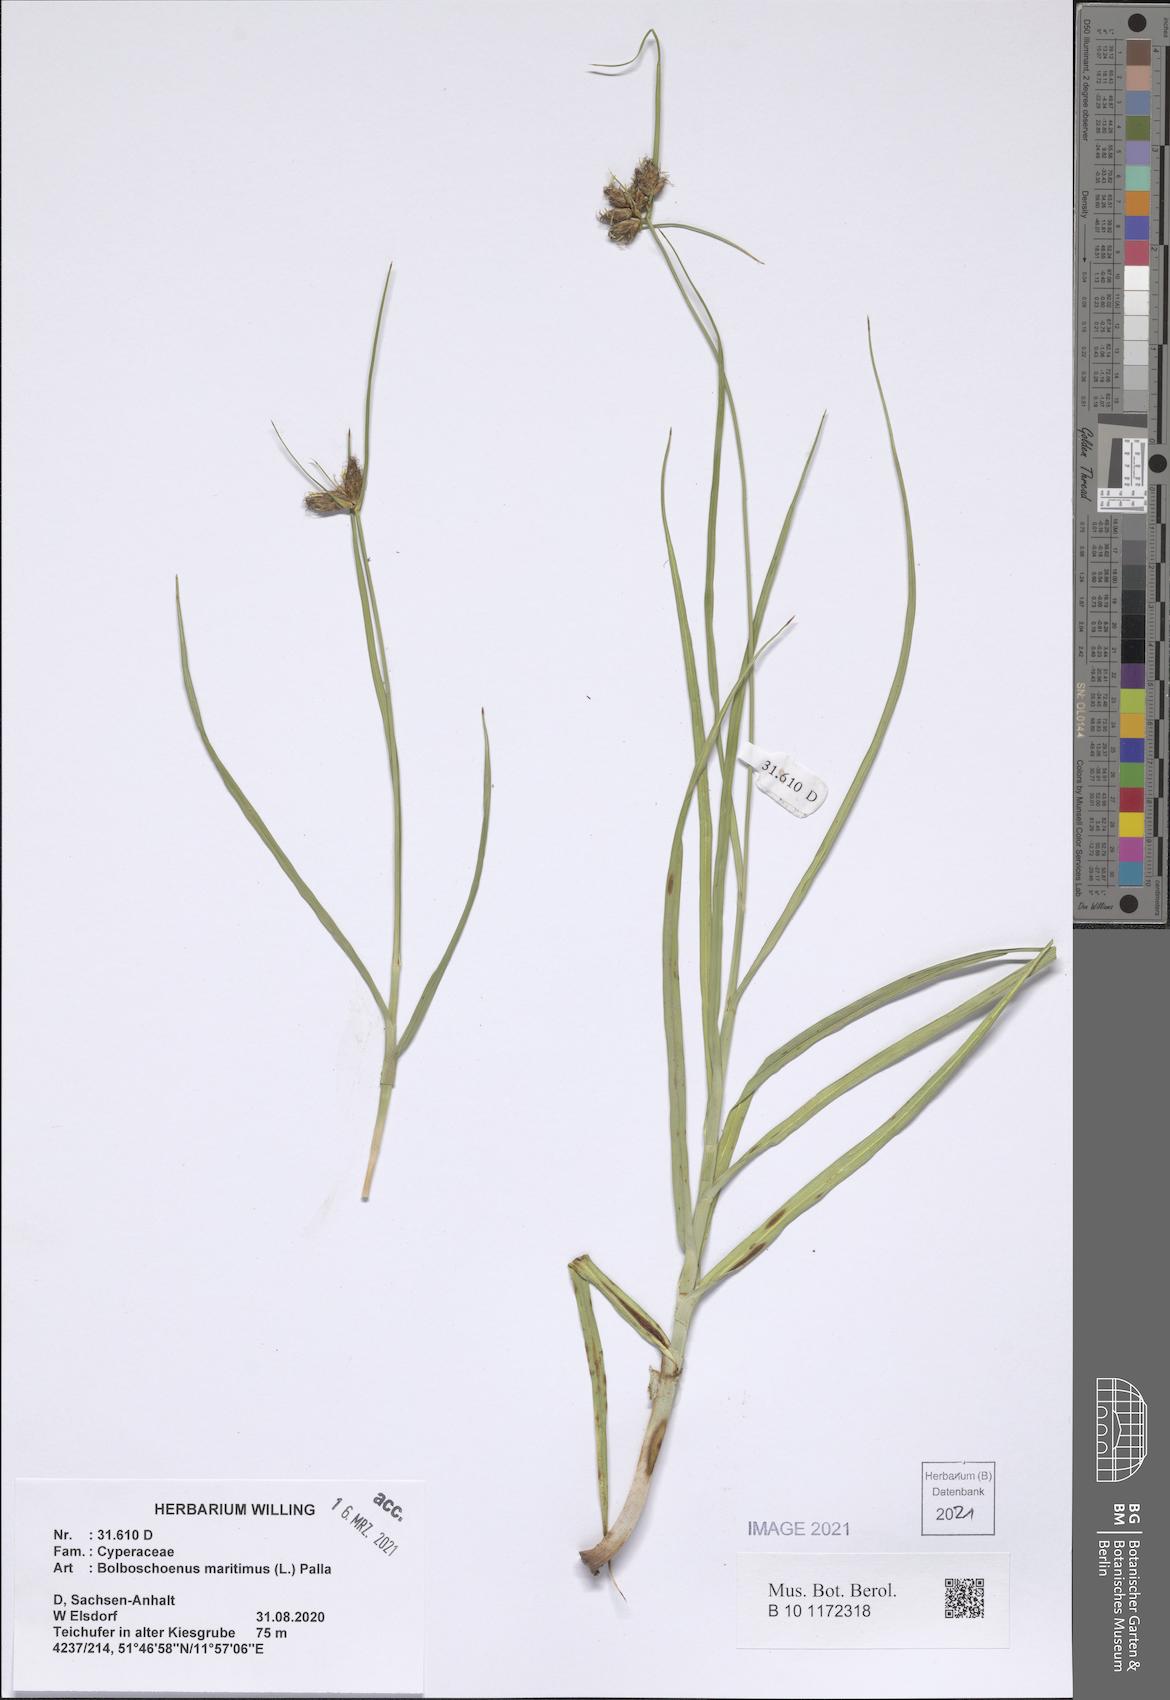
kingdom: Plantae
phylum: Tracheophyta
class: Liliopsida
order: Poales
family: Cyperaceae
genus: Bolboschoenus
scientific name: Bolboschoenus maritimus
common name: Sea club-rush
